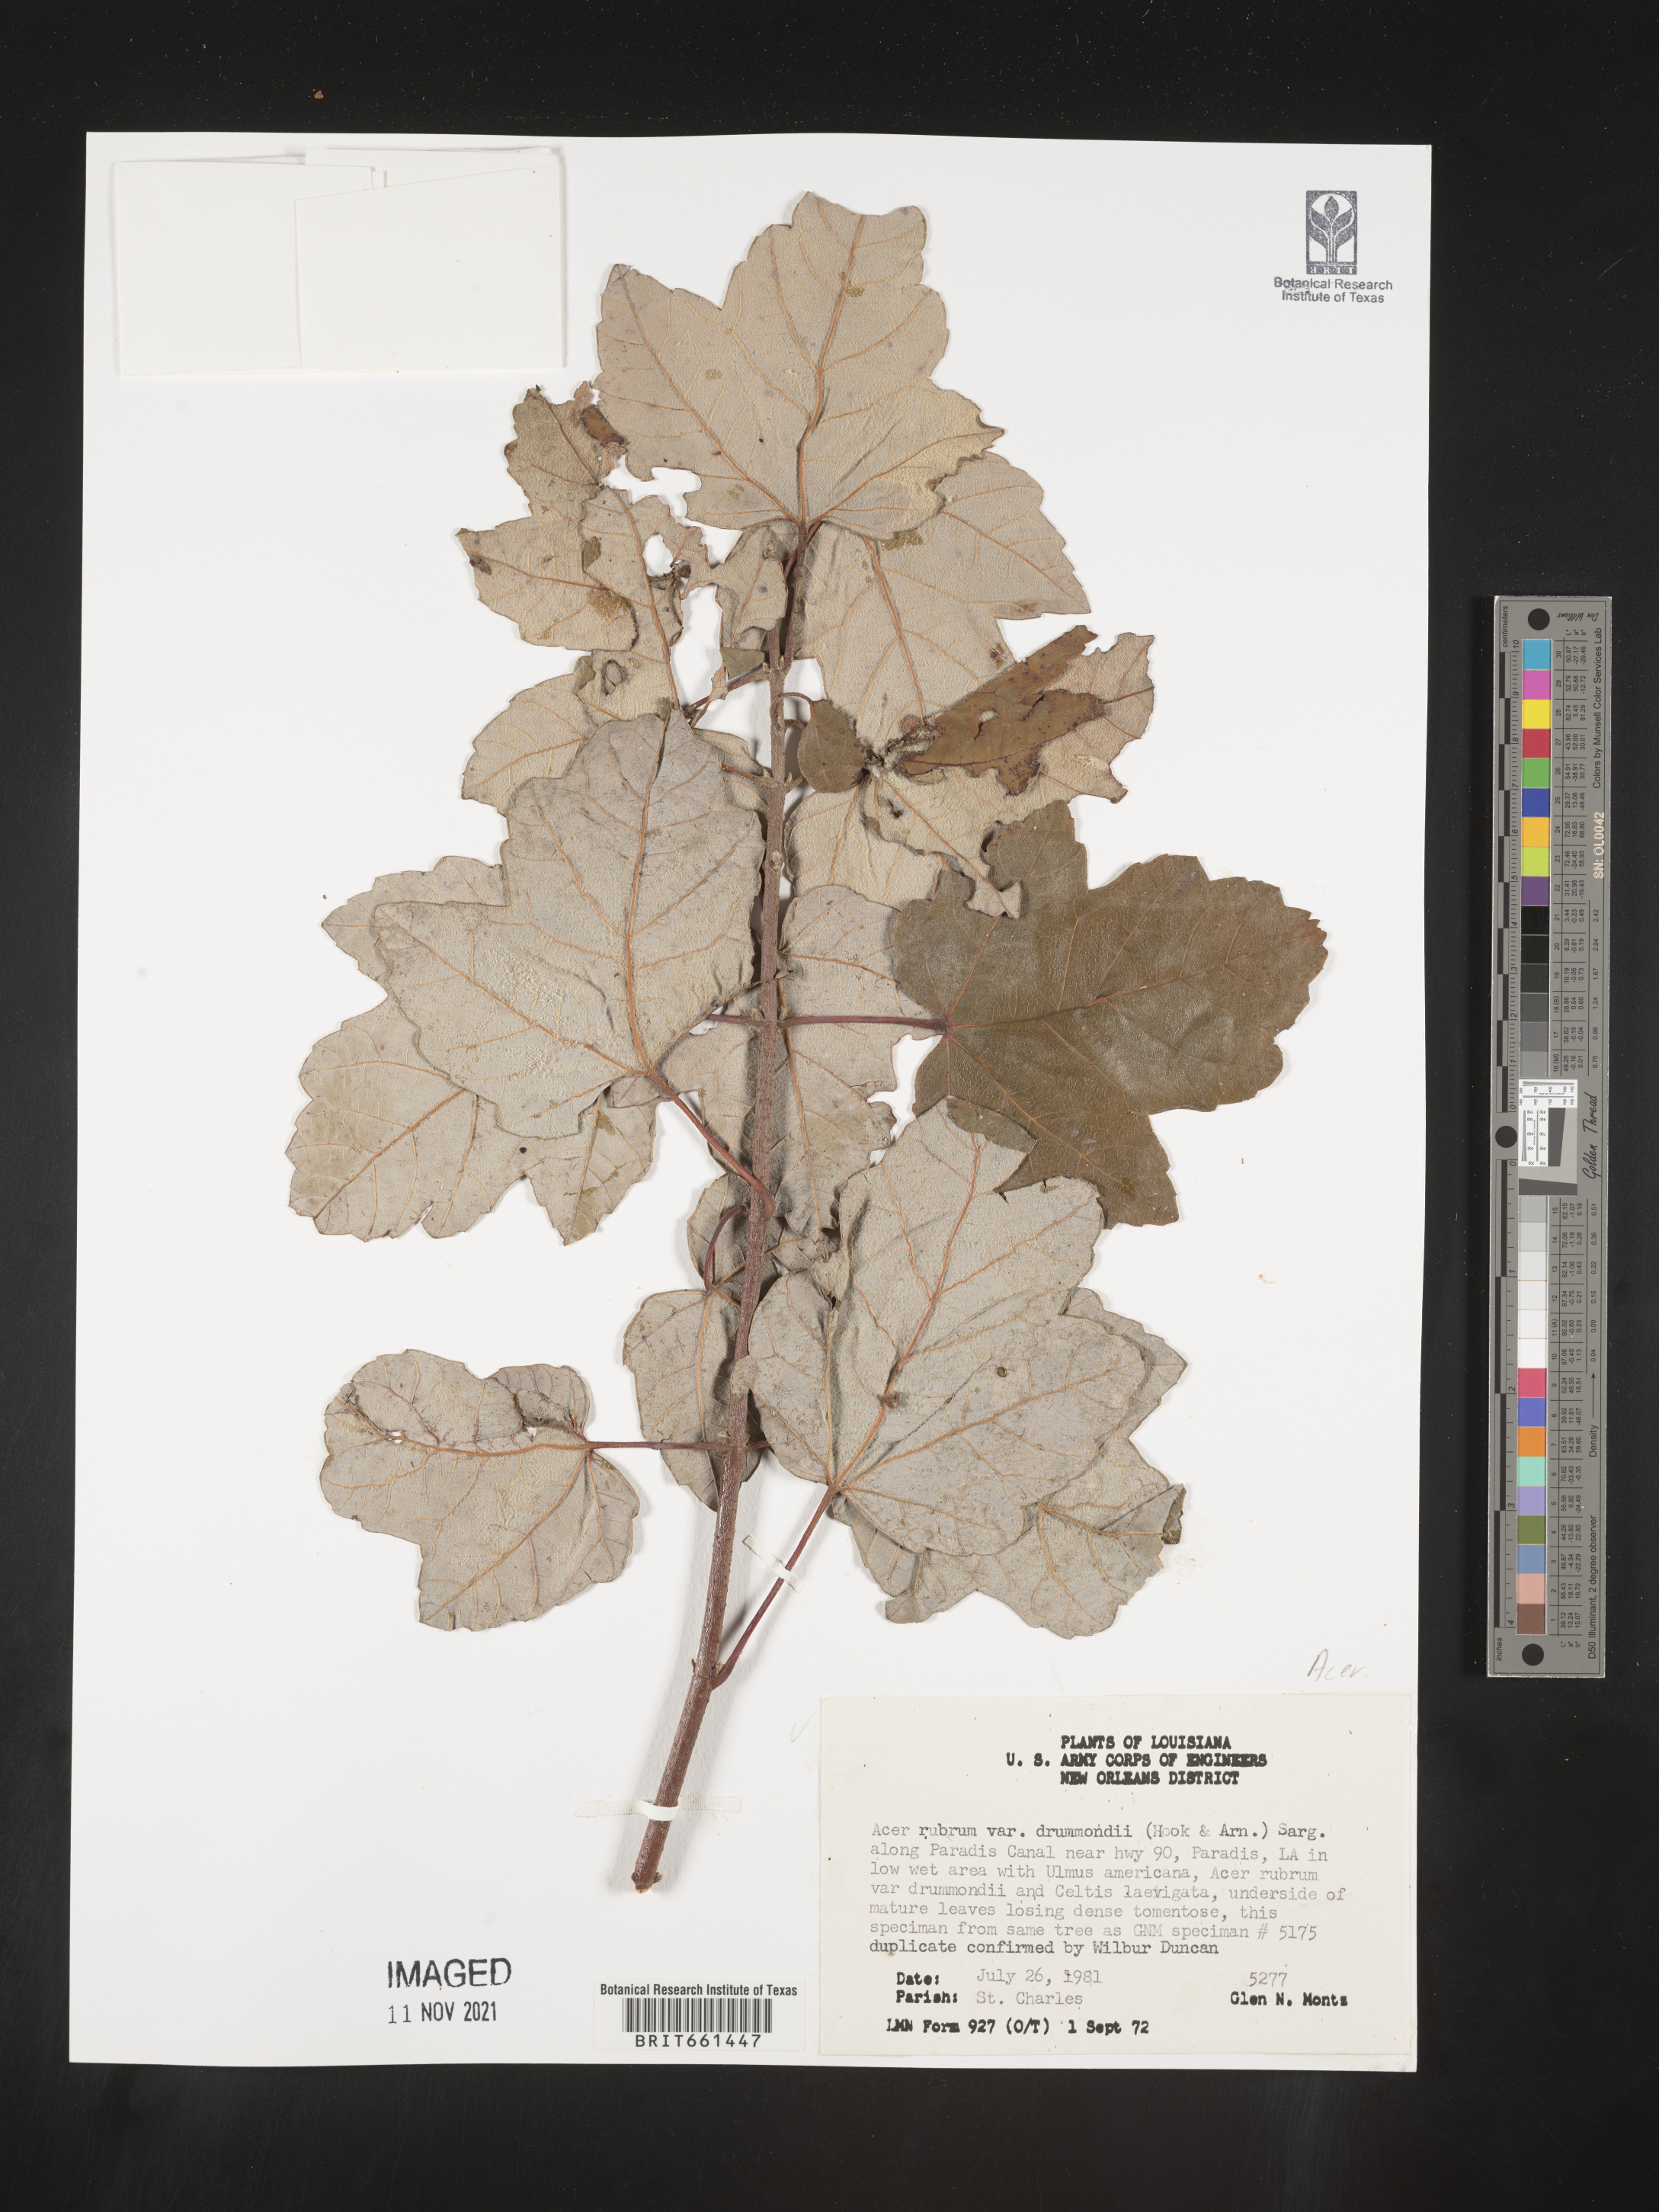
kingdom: Plantae
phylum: Tracheophyta
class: Magnoliopsida
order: Sapindales
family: Sapindaceae
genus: Acer
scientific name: Acer rubrum
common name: Red maple
